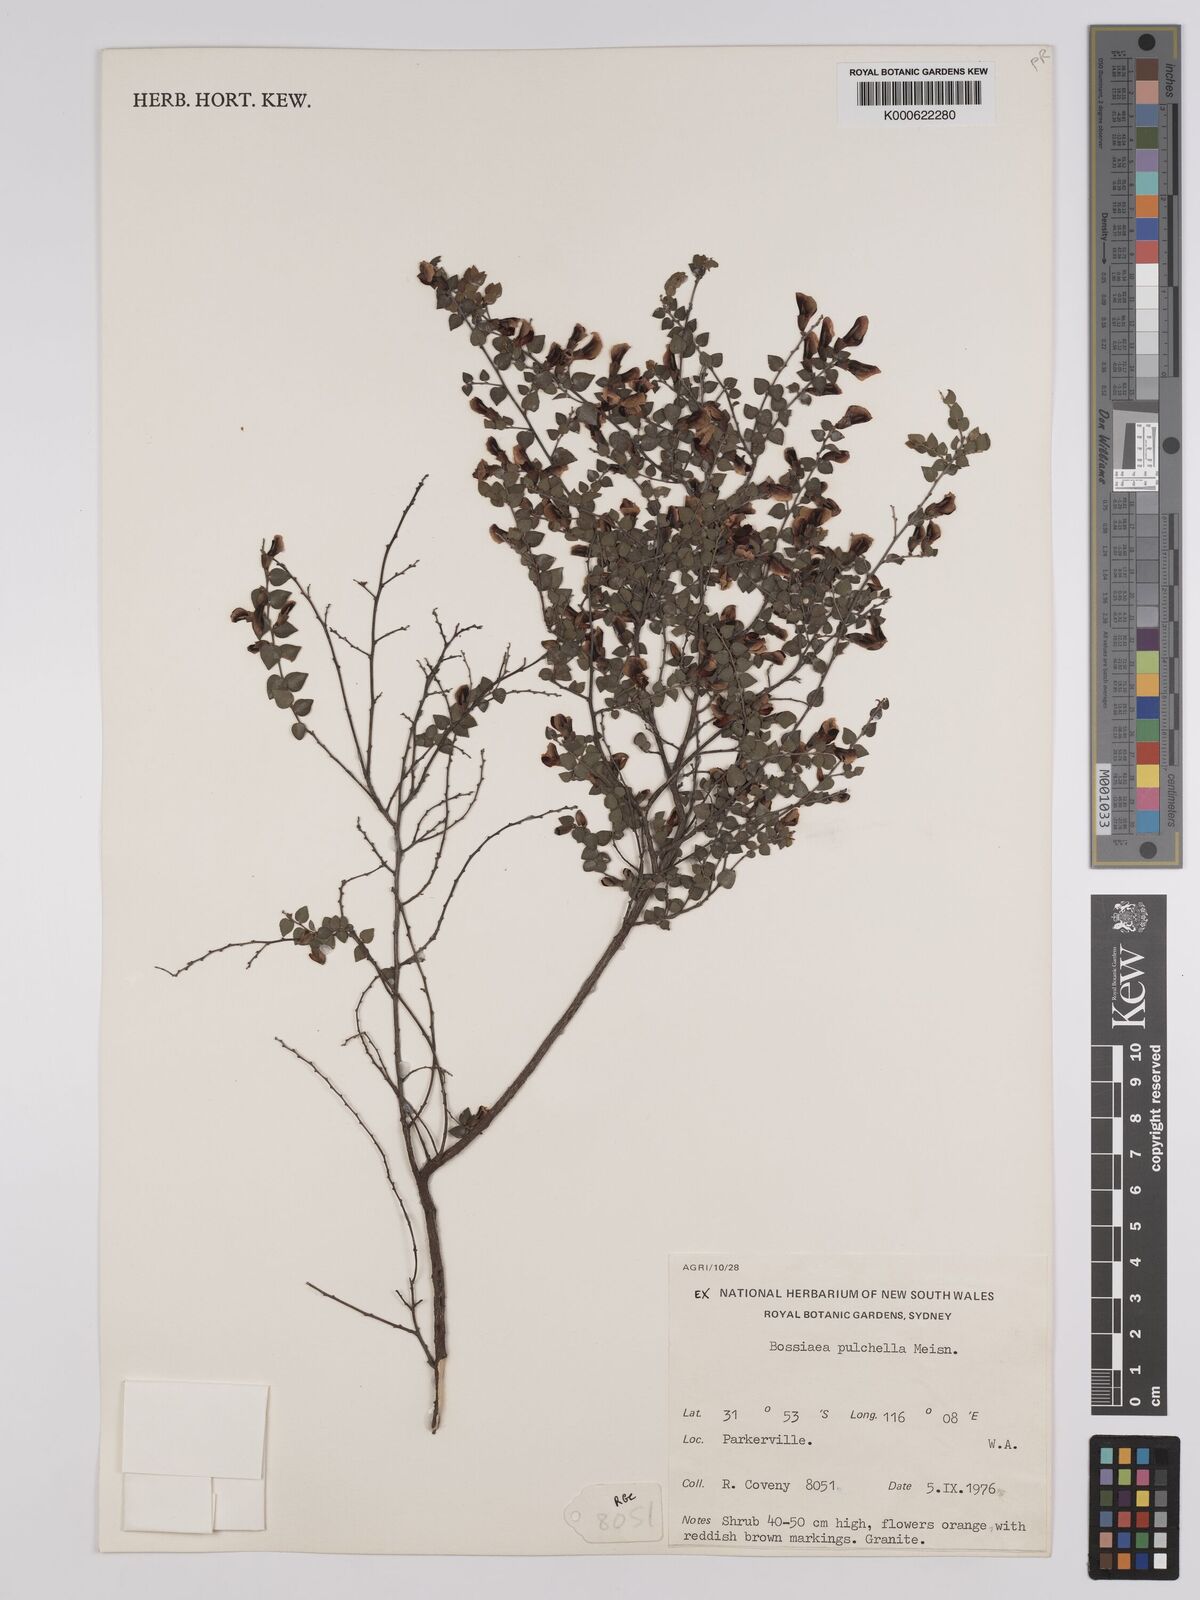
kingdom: Plantae
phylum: Tracheophyta
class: Magnoliopsida
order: Fabales
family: Fabaceae
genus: Bossiaea
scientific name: Bossiaea pulchella
